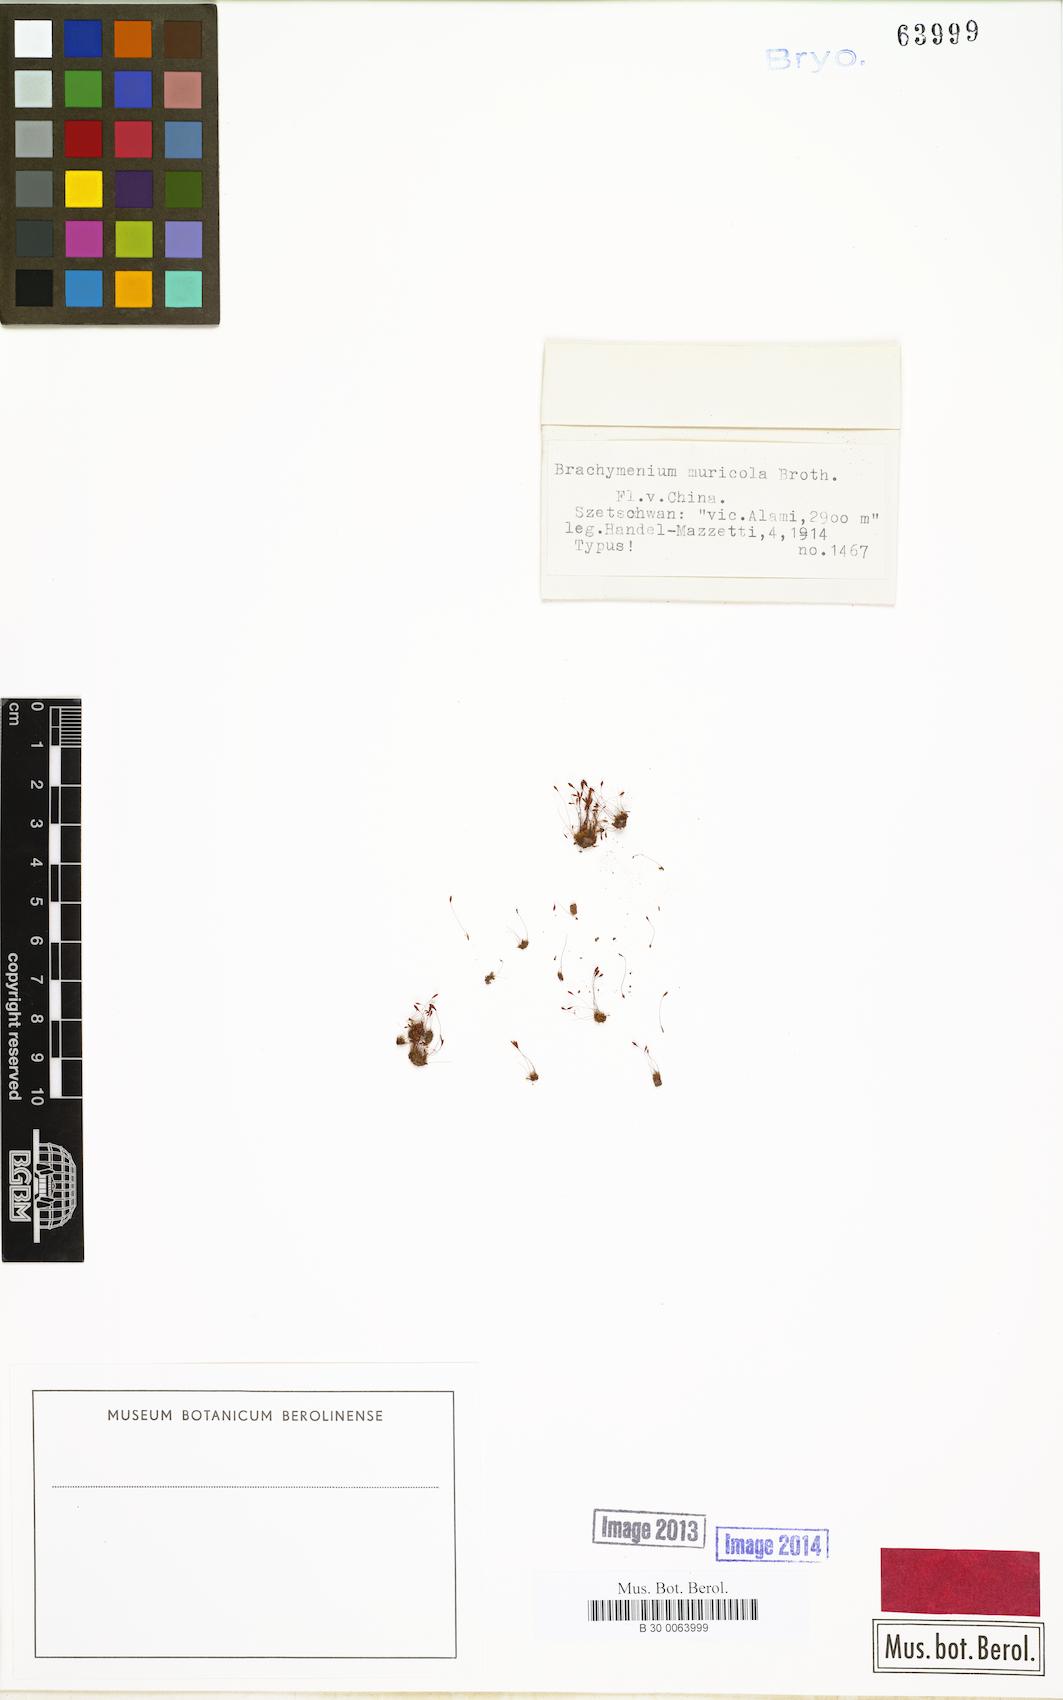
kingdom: Plantae
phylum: Bryophyta
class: Bryopsida
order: Bryales
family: Bryaceae
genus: Brachymenium
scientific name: Brachymenium muricola
